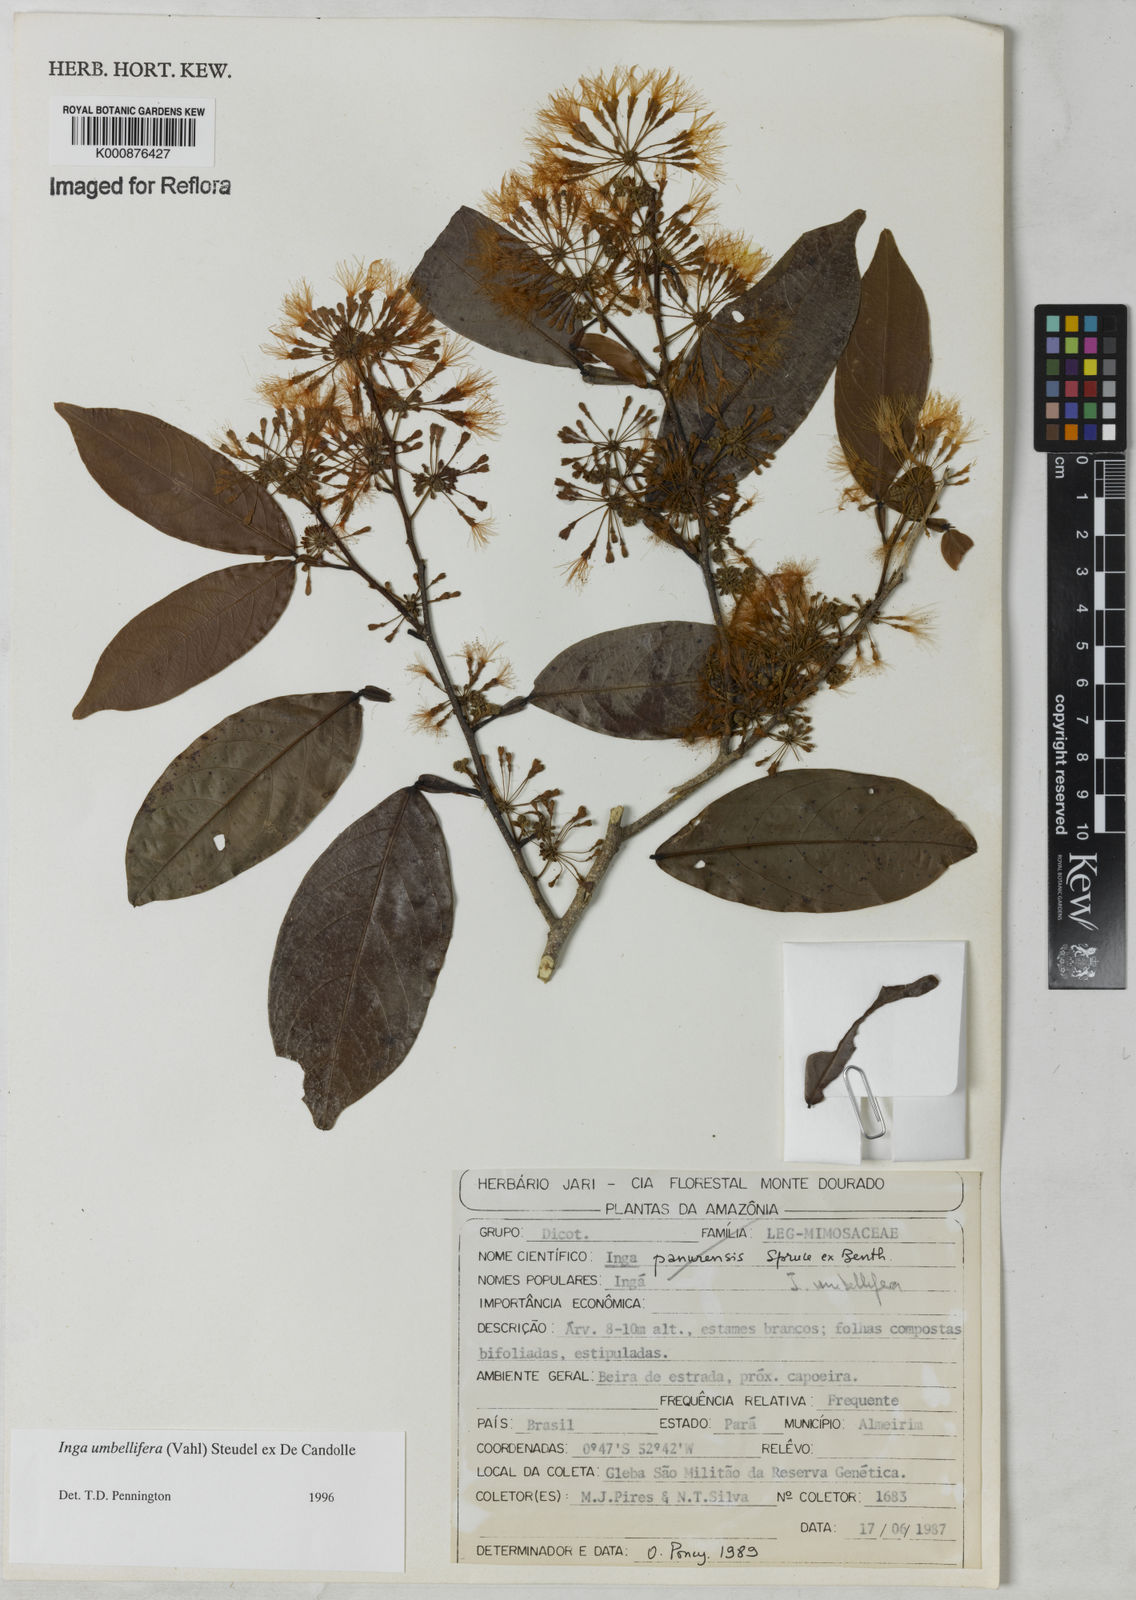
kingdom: Plantae
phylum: Tracheophyta
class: Magnoliopsida
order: Fabales
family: Fabaceae
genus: Inga
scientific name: Inga umbellifera
